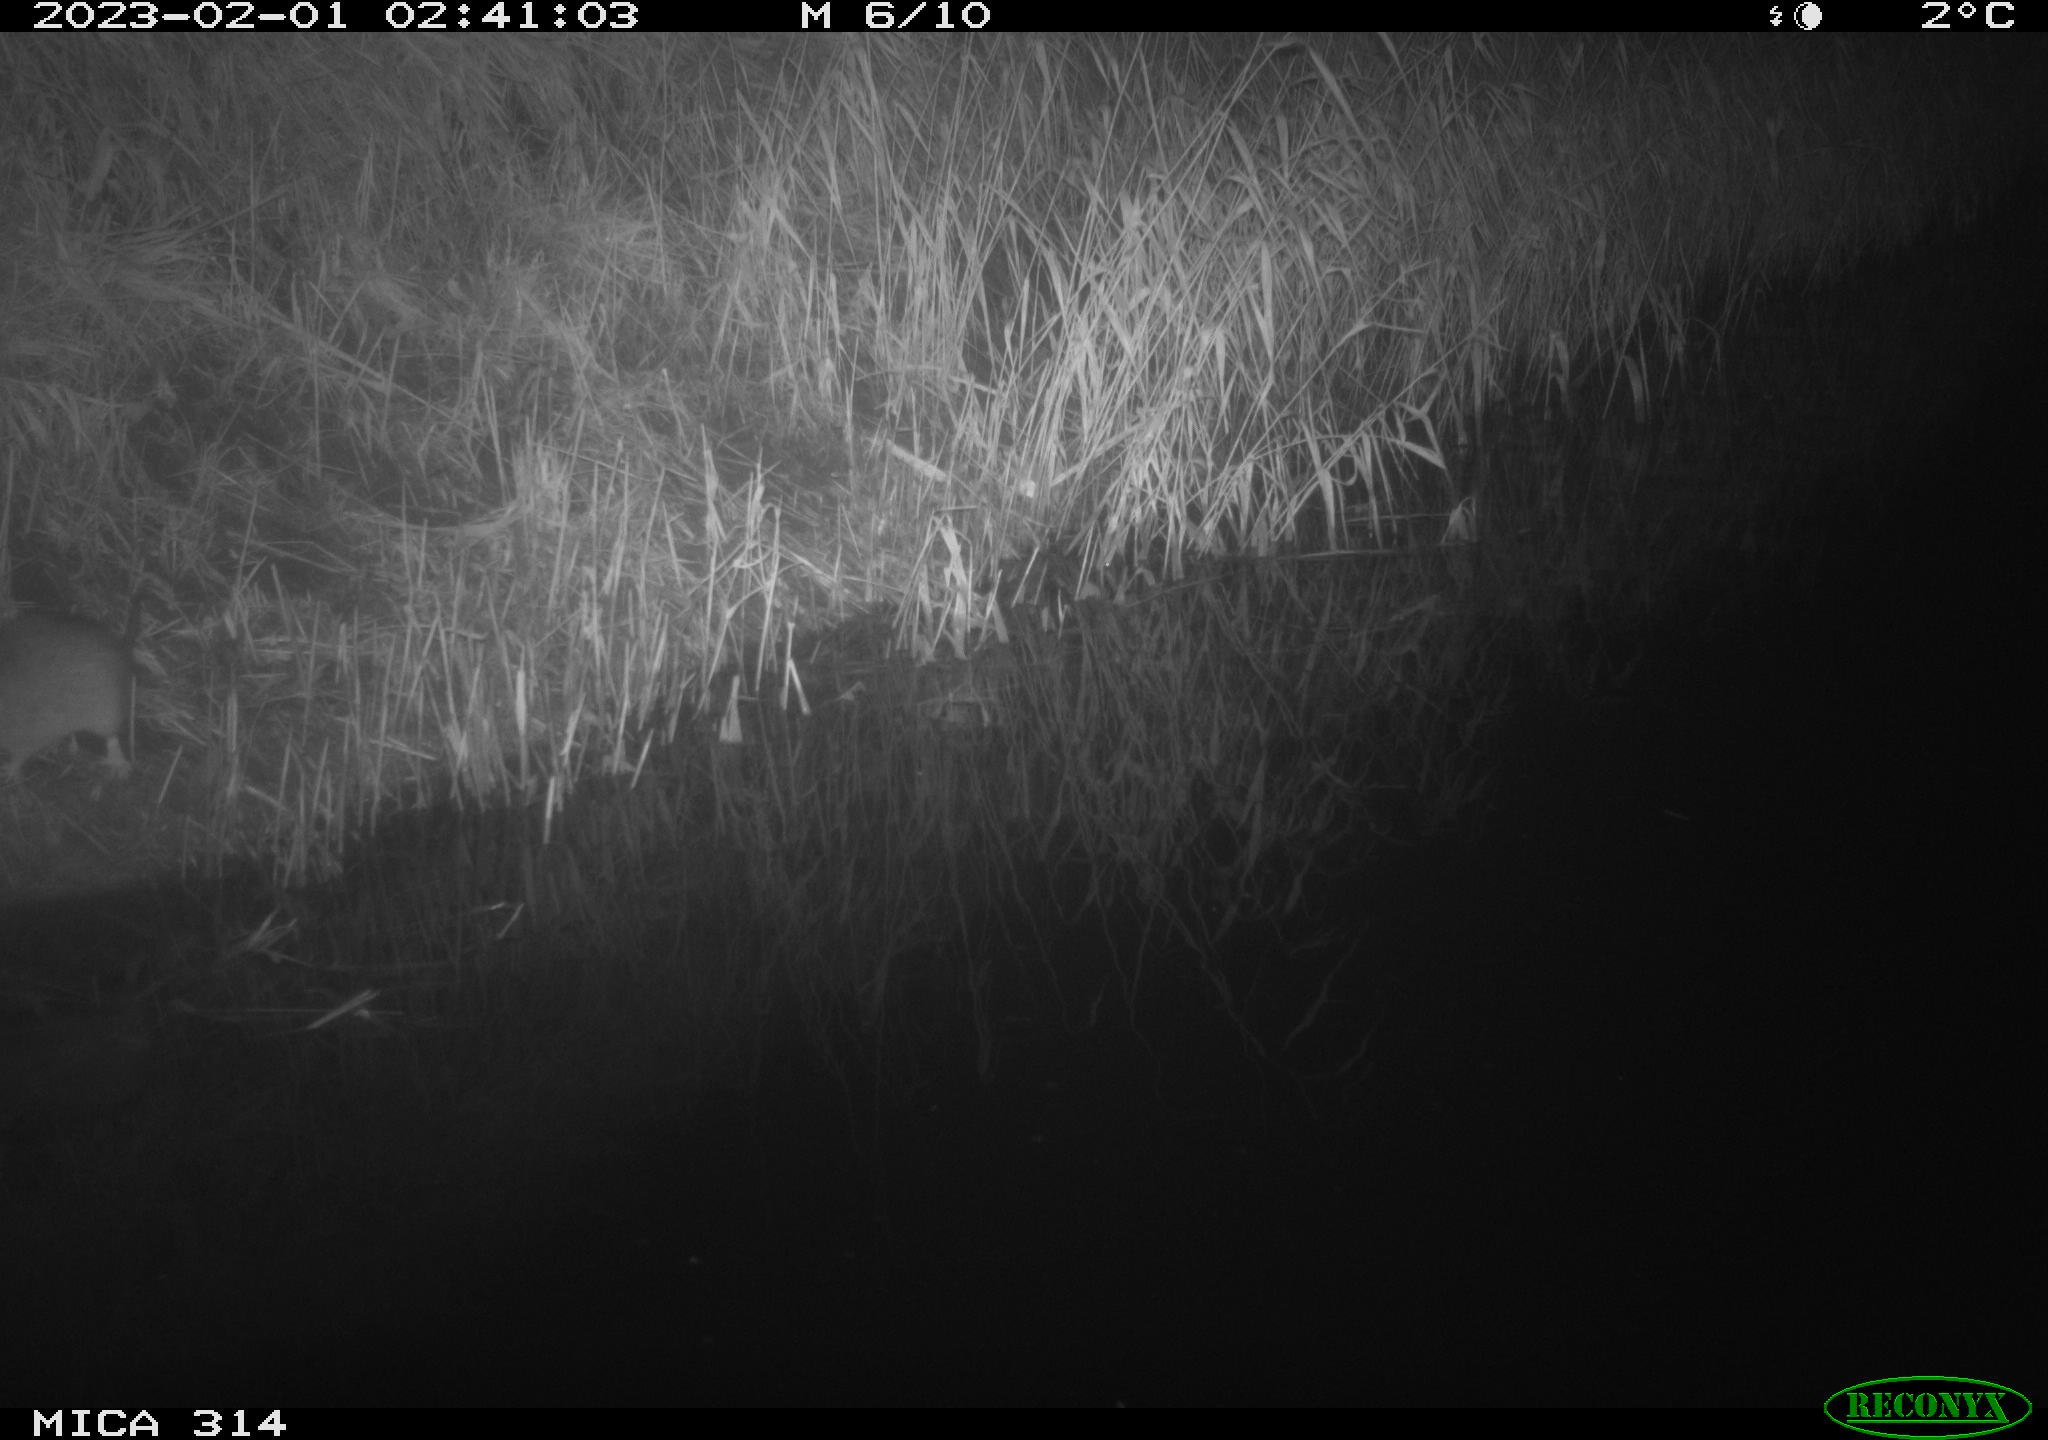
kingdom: Animalia
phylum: Chordata
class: Mammalia
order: Rodentia
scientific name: Rodentia
